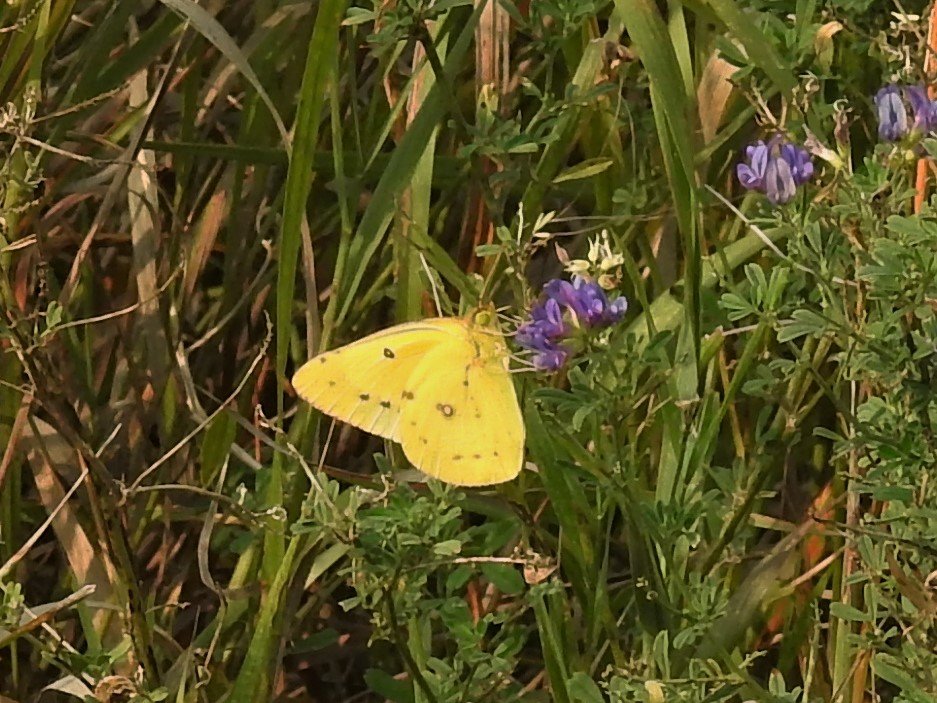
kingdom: Animalia
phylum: Arthropoda
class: Insecta
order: Lepidoptera
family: Pieridae
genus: Colias
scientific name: Colias eurytheme
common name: Orange Sulphur
